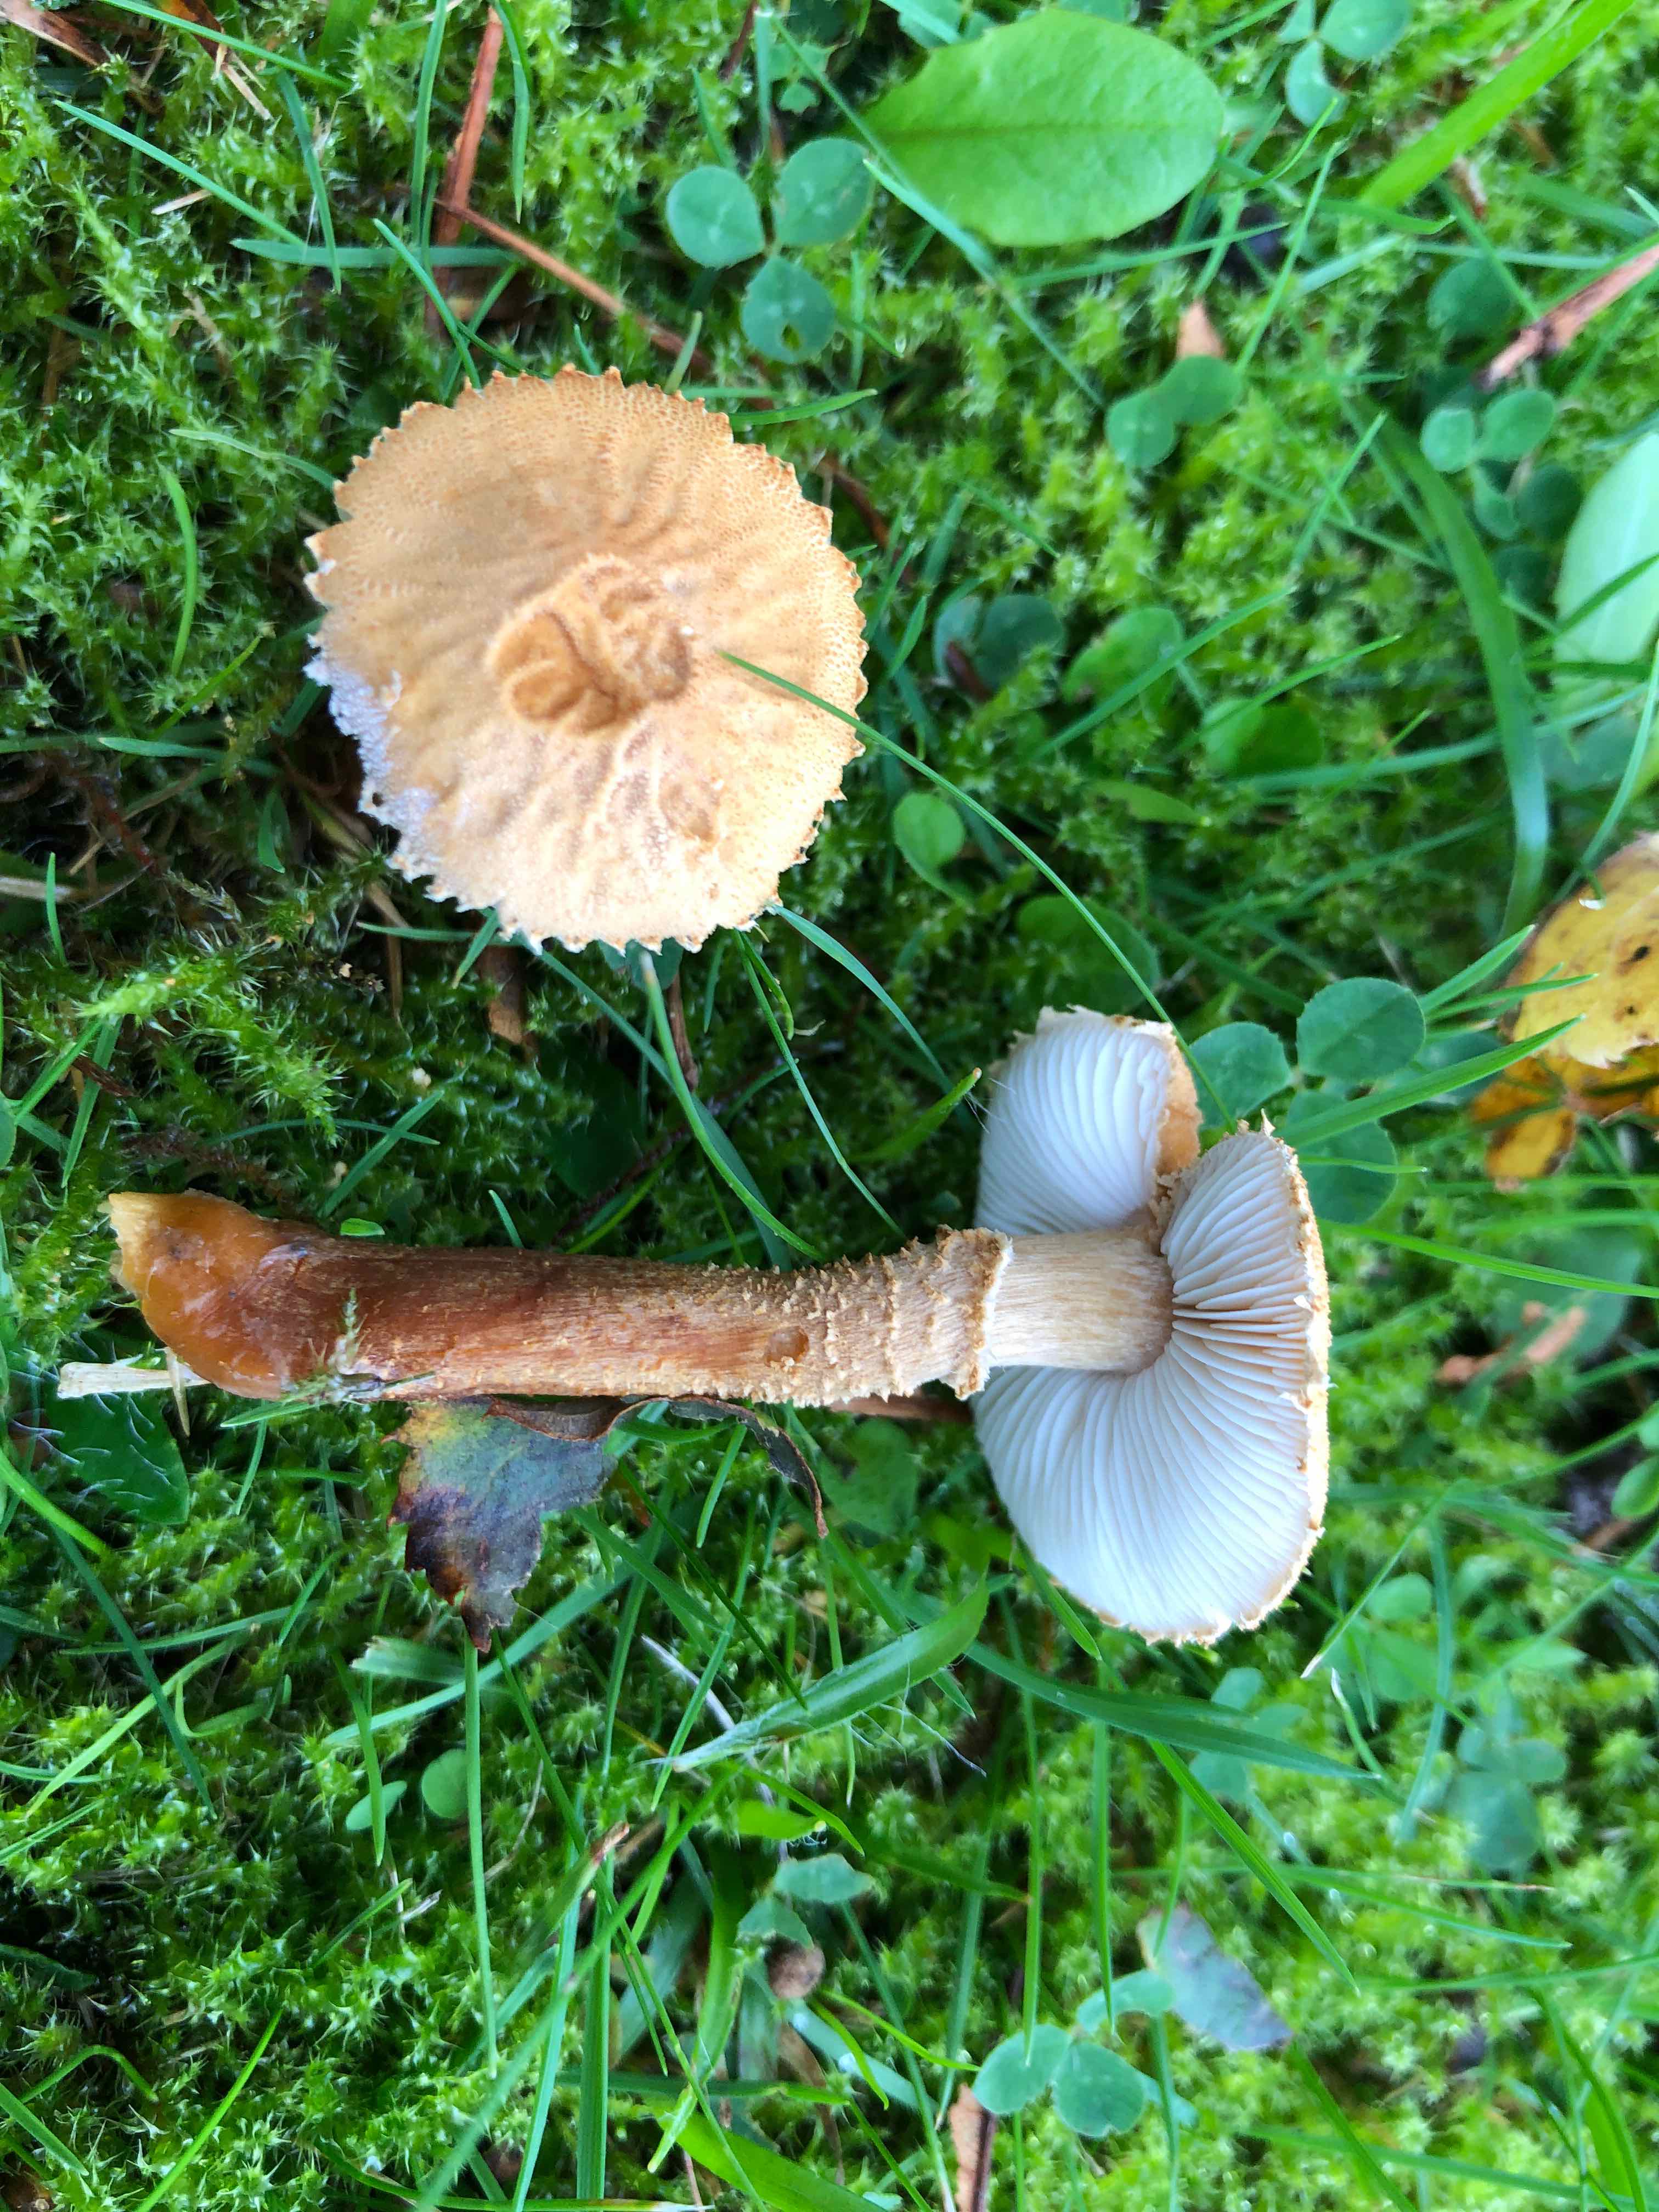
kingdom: Fungi
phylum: Basidiomycota
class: Agaricomycetes
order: Agaricales
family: Tricholomataceae
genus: Cystoderma
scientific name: Cystoderma amianthinum
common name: okkergul grynhat
